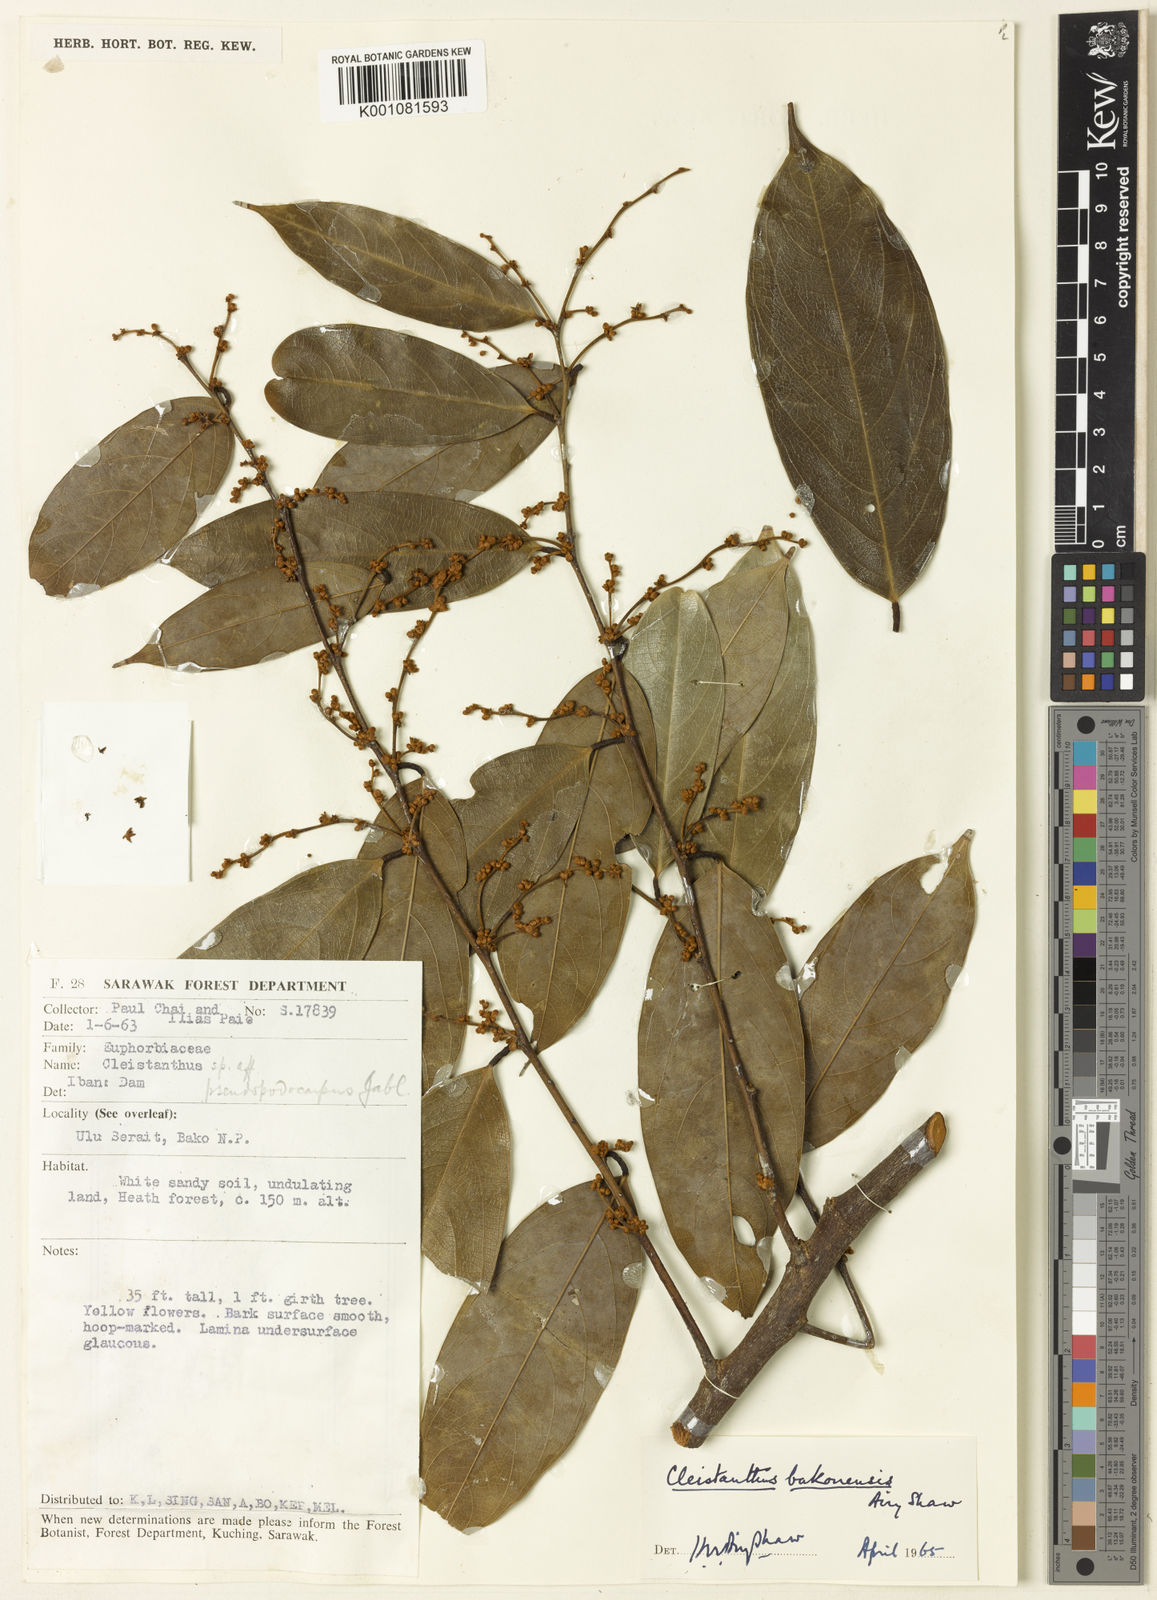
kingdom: Plantae
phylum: Tracheophyta
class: Magnoliopsida
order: Malpighiales
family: Phyllanthaceae
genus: Cleistanthus
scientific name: Cleistanthus bakonensis
